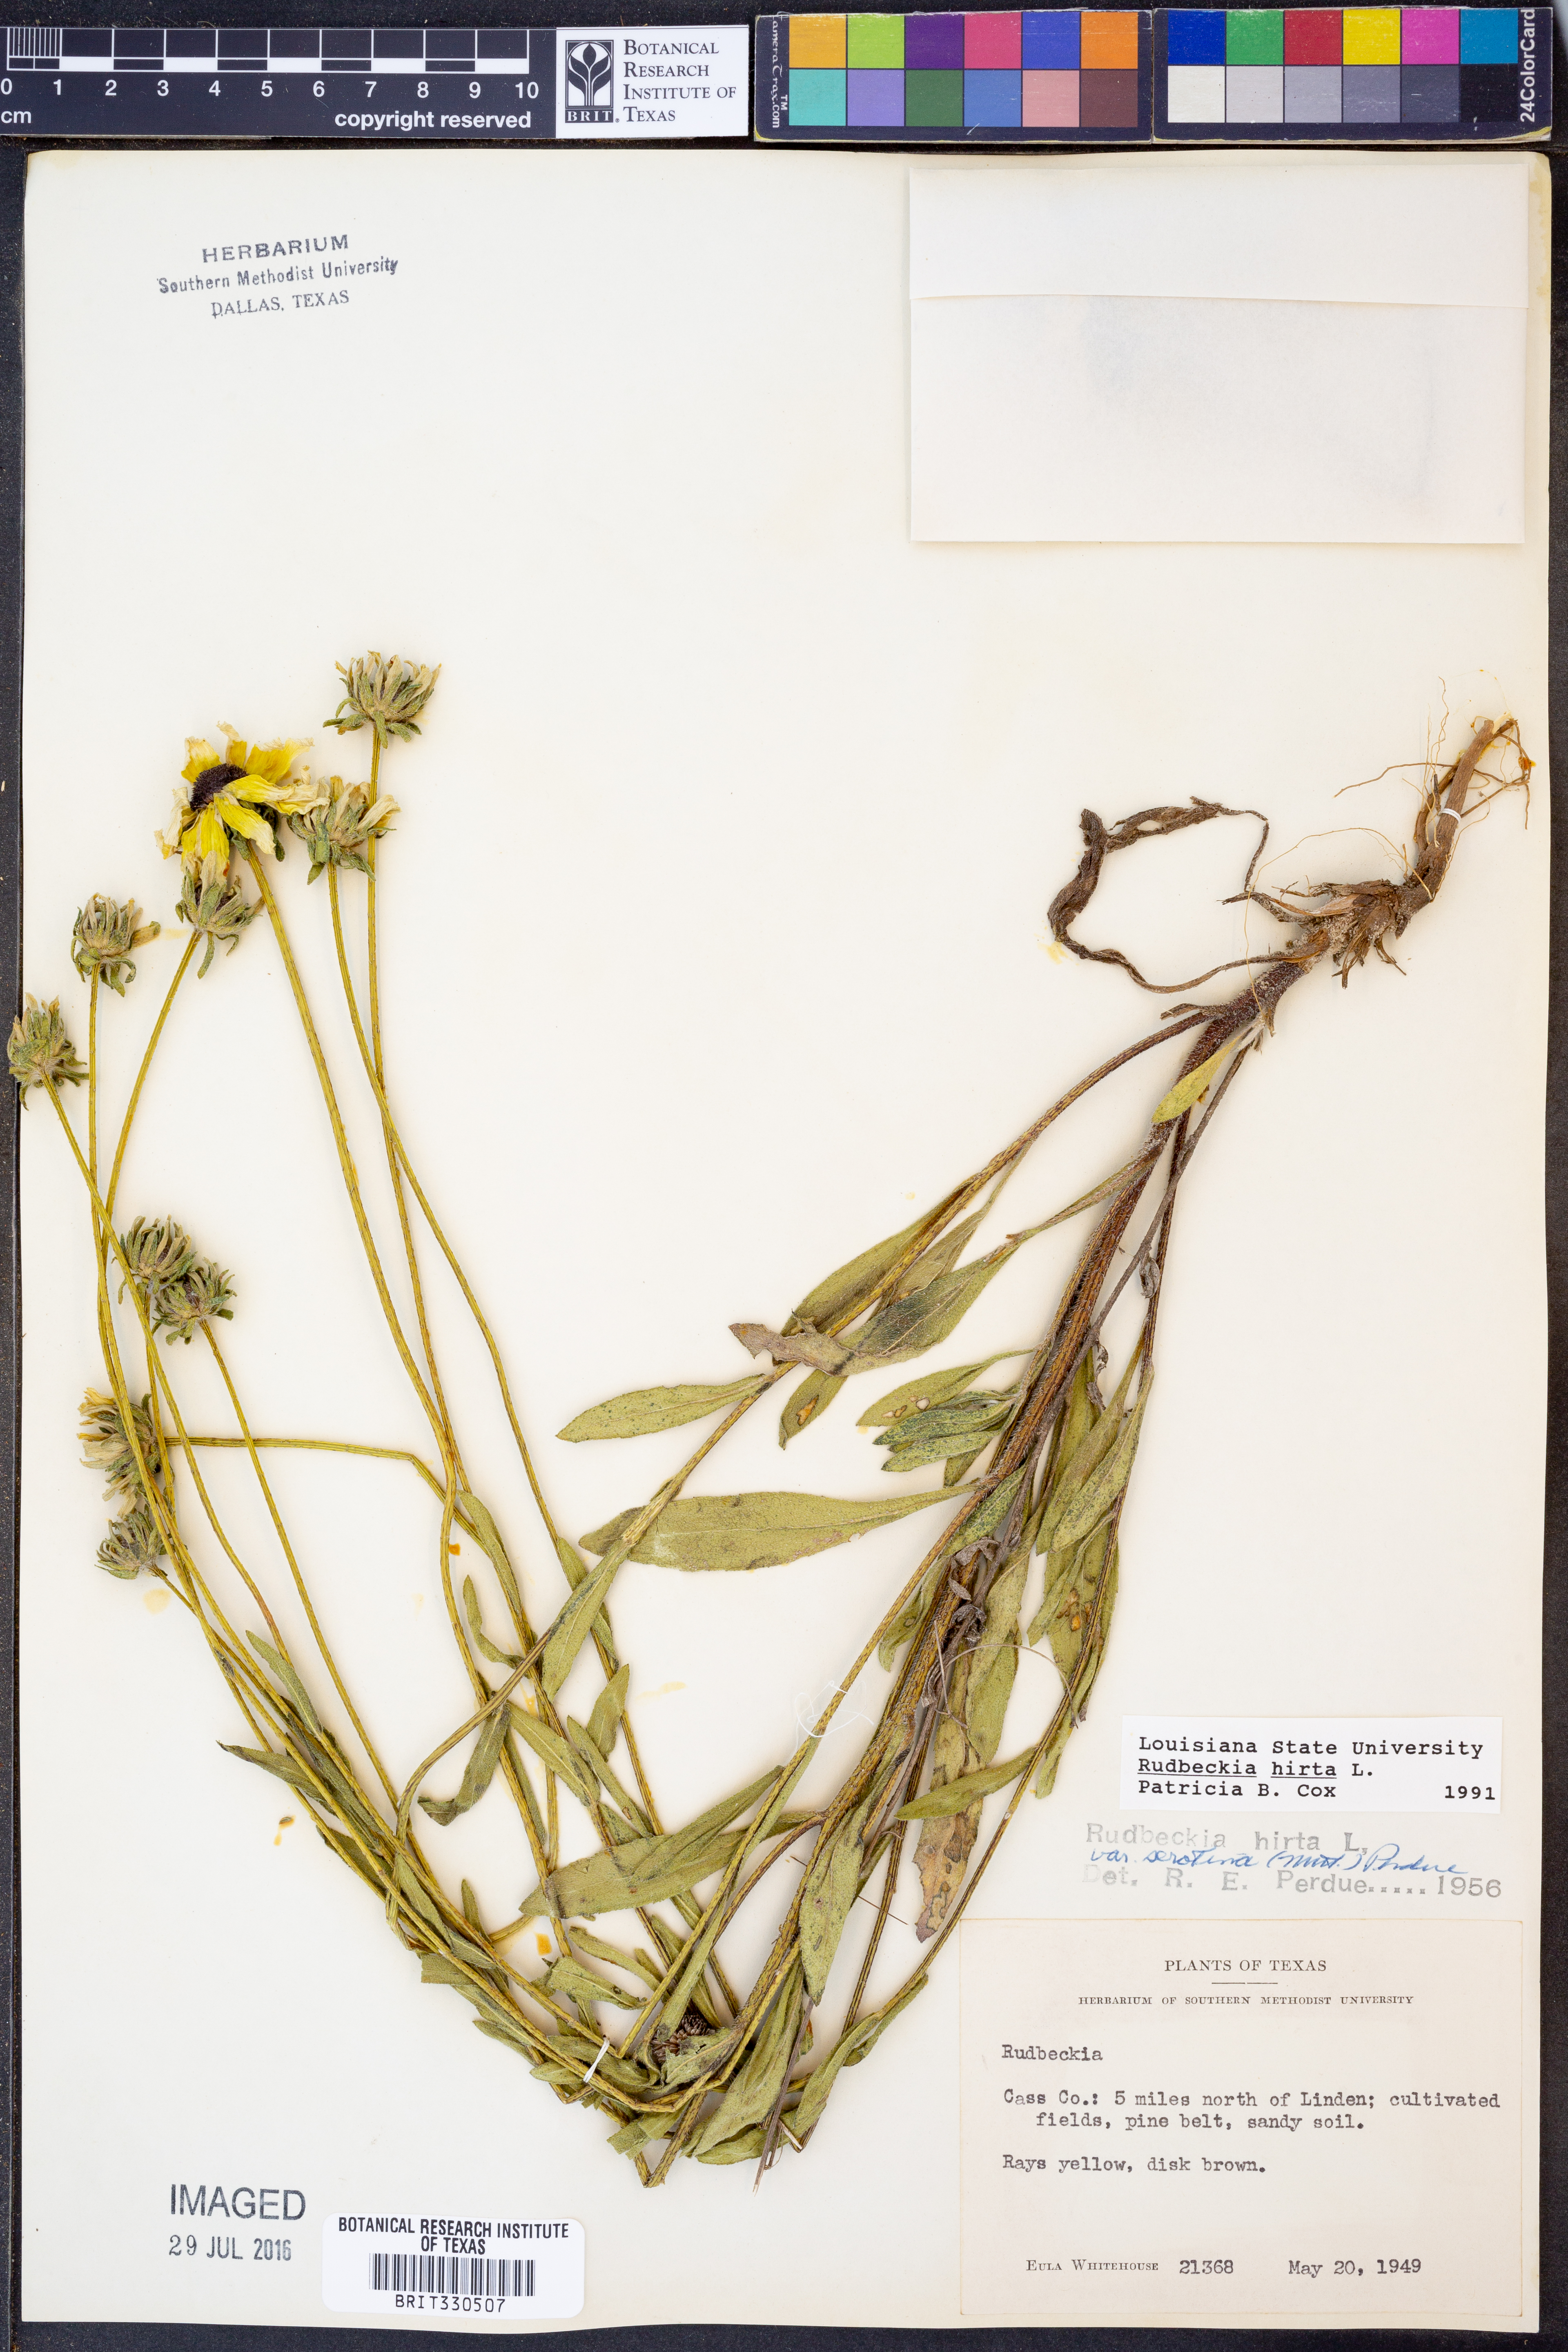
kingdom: Plantae
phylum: Tracheophyta
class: Magnoliopsida
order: Asterales
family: Asteraceae
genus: Rudbeckia
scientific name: Rudbeckia hirta
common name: Black-eyed-susan
